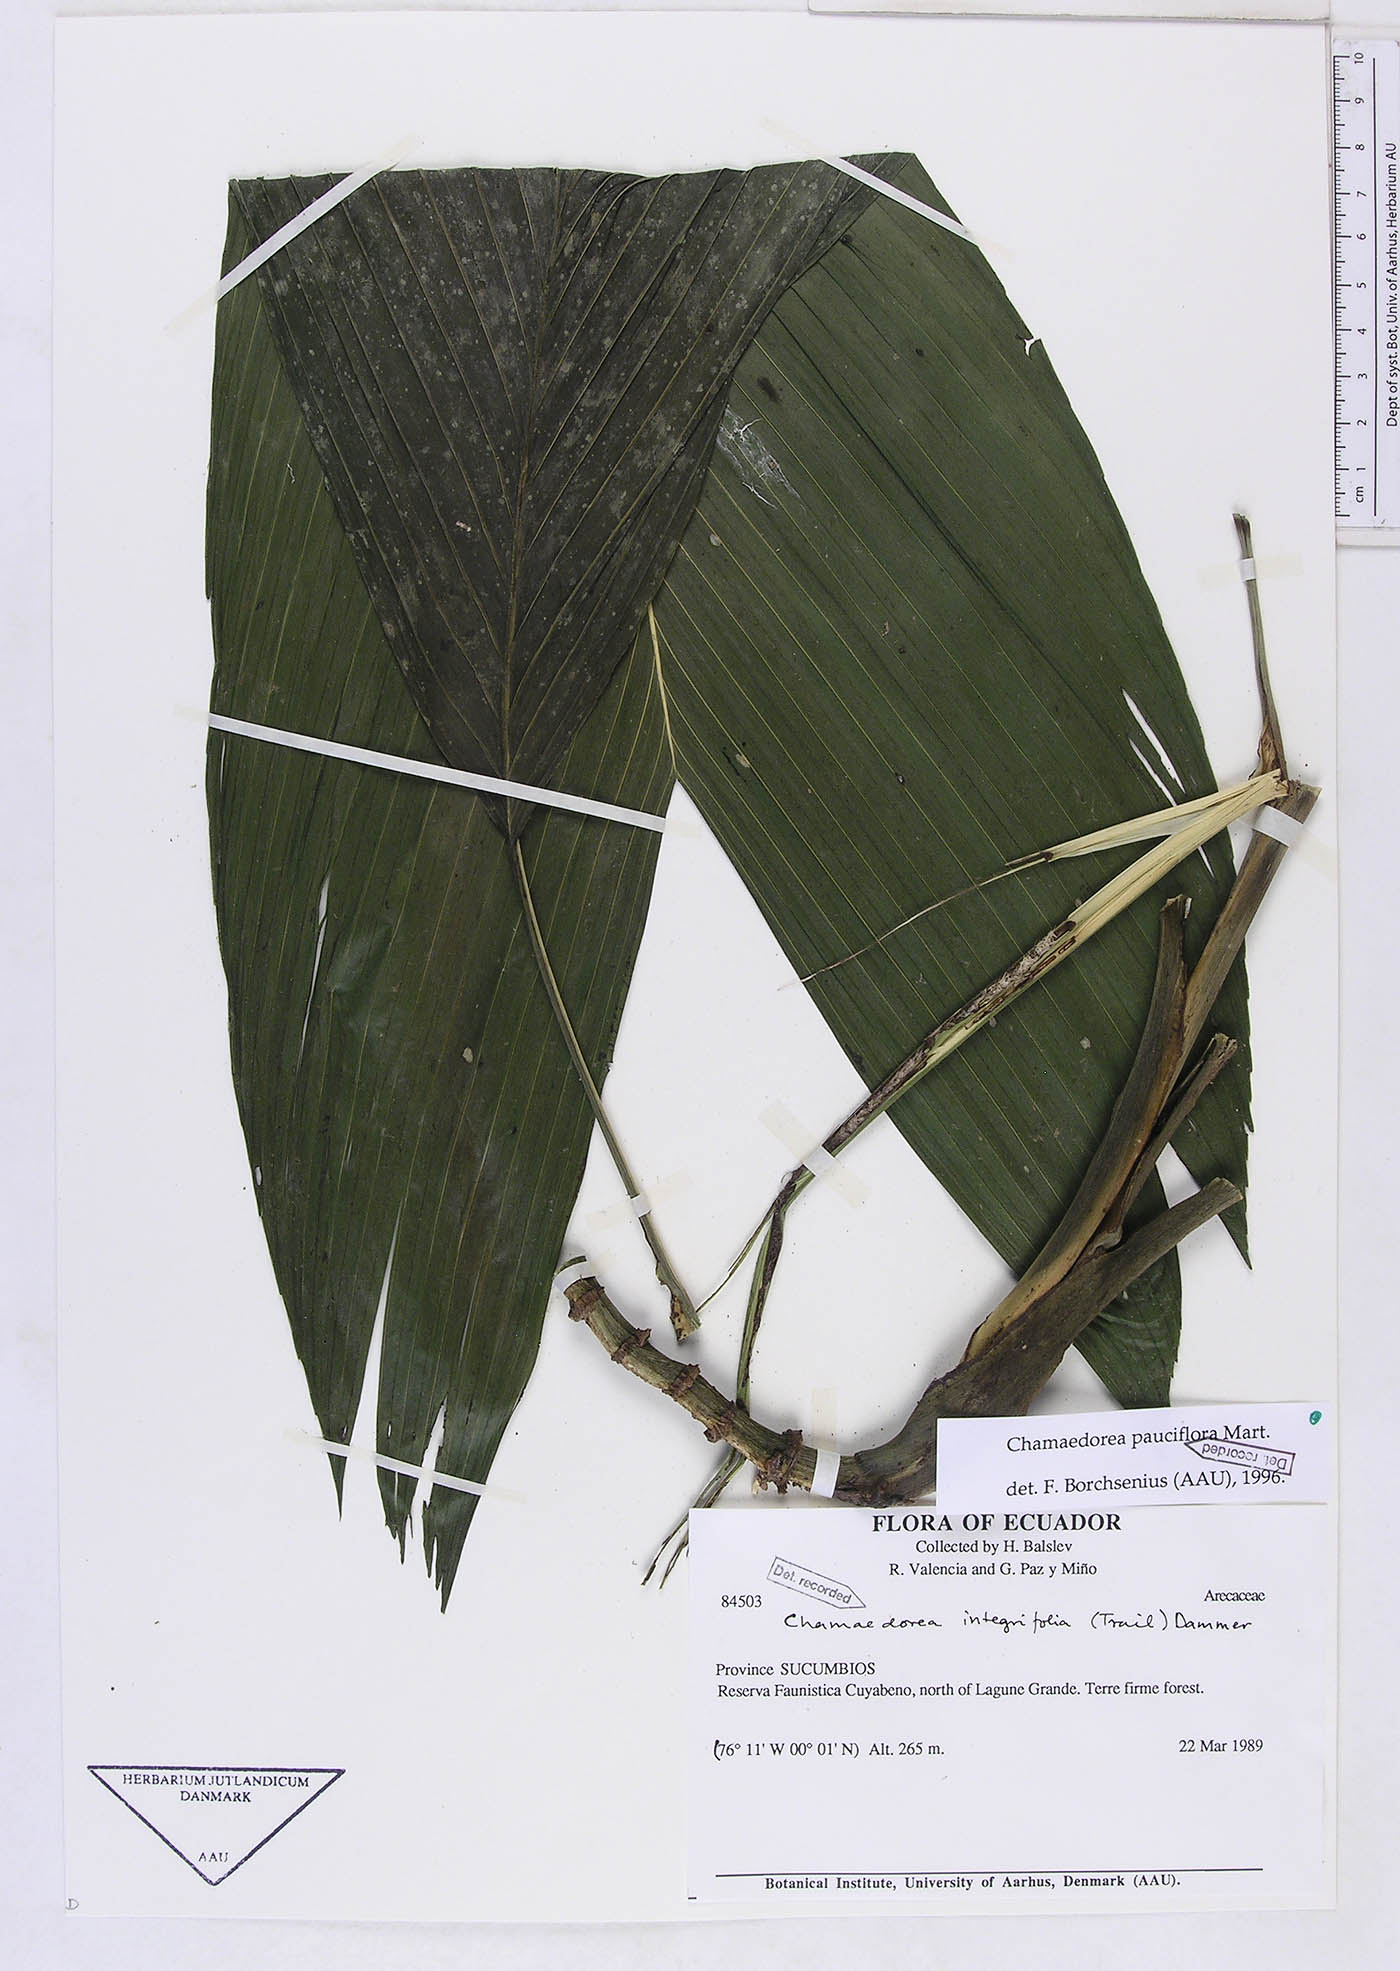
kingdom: Plantae
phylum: Tracheophyta
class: Liliopsida
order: Arecales
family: Arecaceae
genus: Chamaedorea
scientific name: Chamaedorea pauciflora
